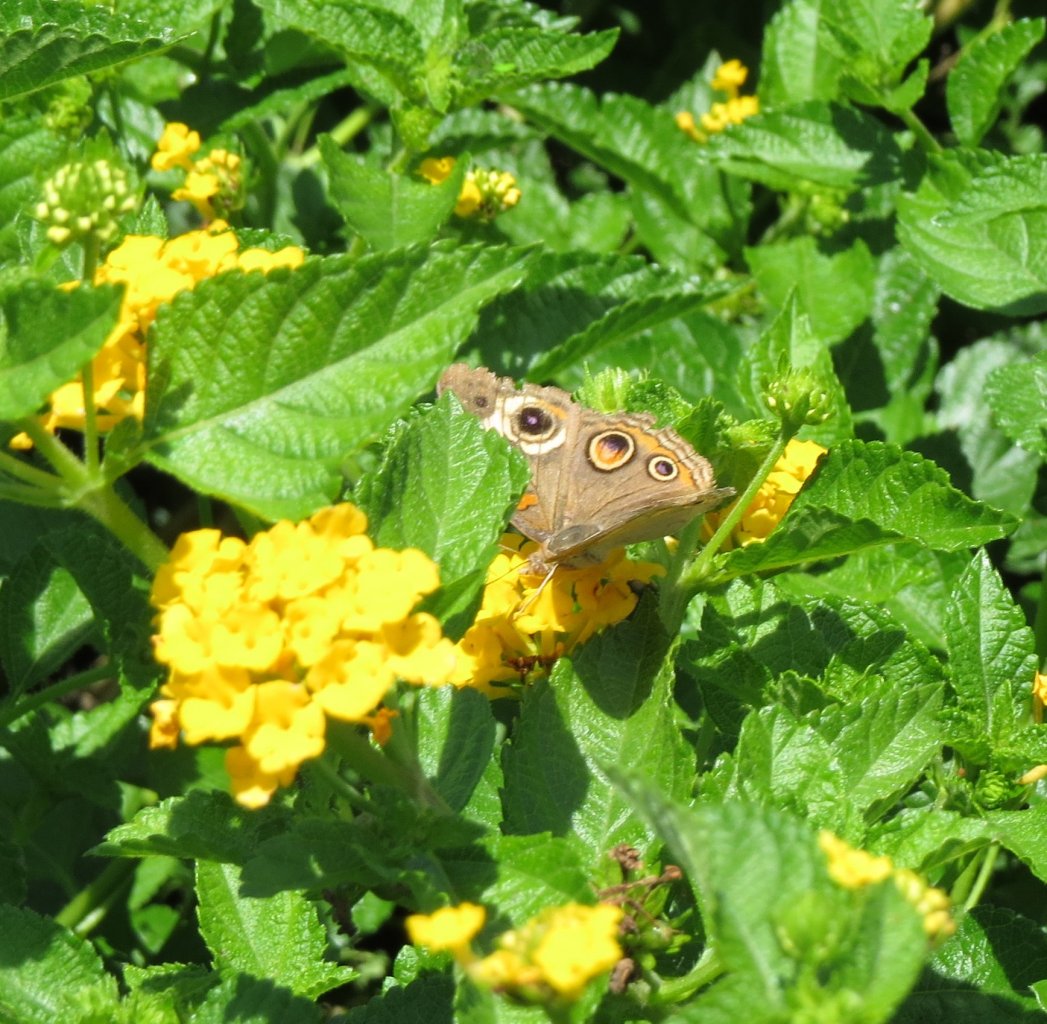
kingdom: Animalia
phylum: Arthropoda
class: Insecta
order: Lepidoptera
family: Nymphalidae
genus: Junonia
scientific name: Junonia coenia
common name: Common Buckeye
